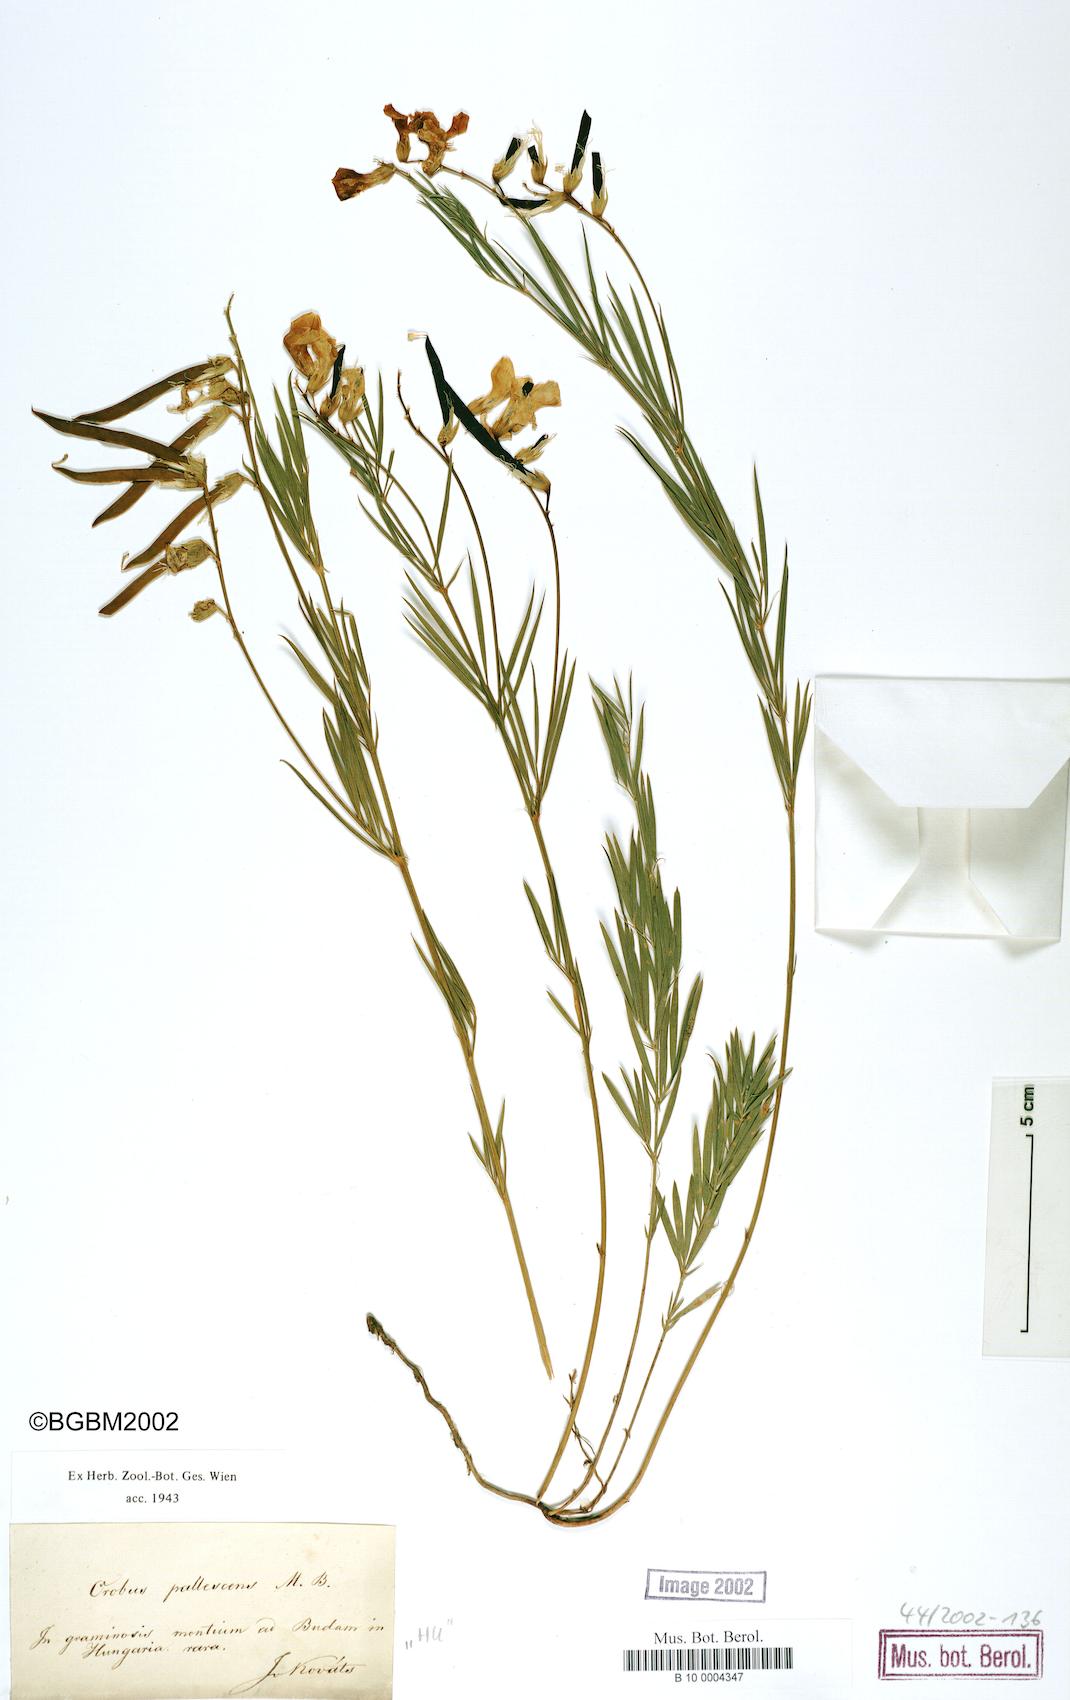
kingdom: Plantae
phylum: Tracheophyta
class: Magnoliopsida
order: Fabales
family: Fabaceae
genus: Lathyrus
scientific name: Lathyrus pallescens
